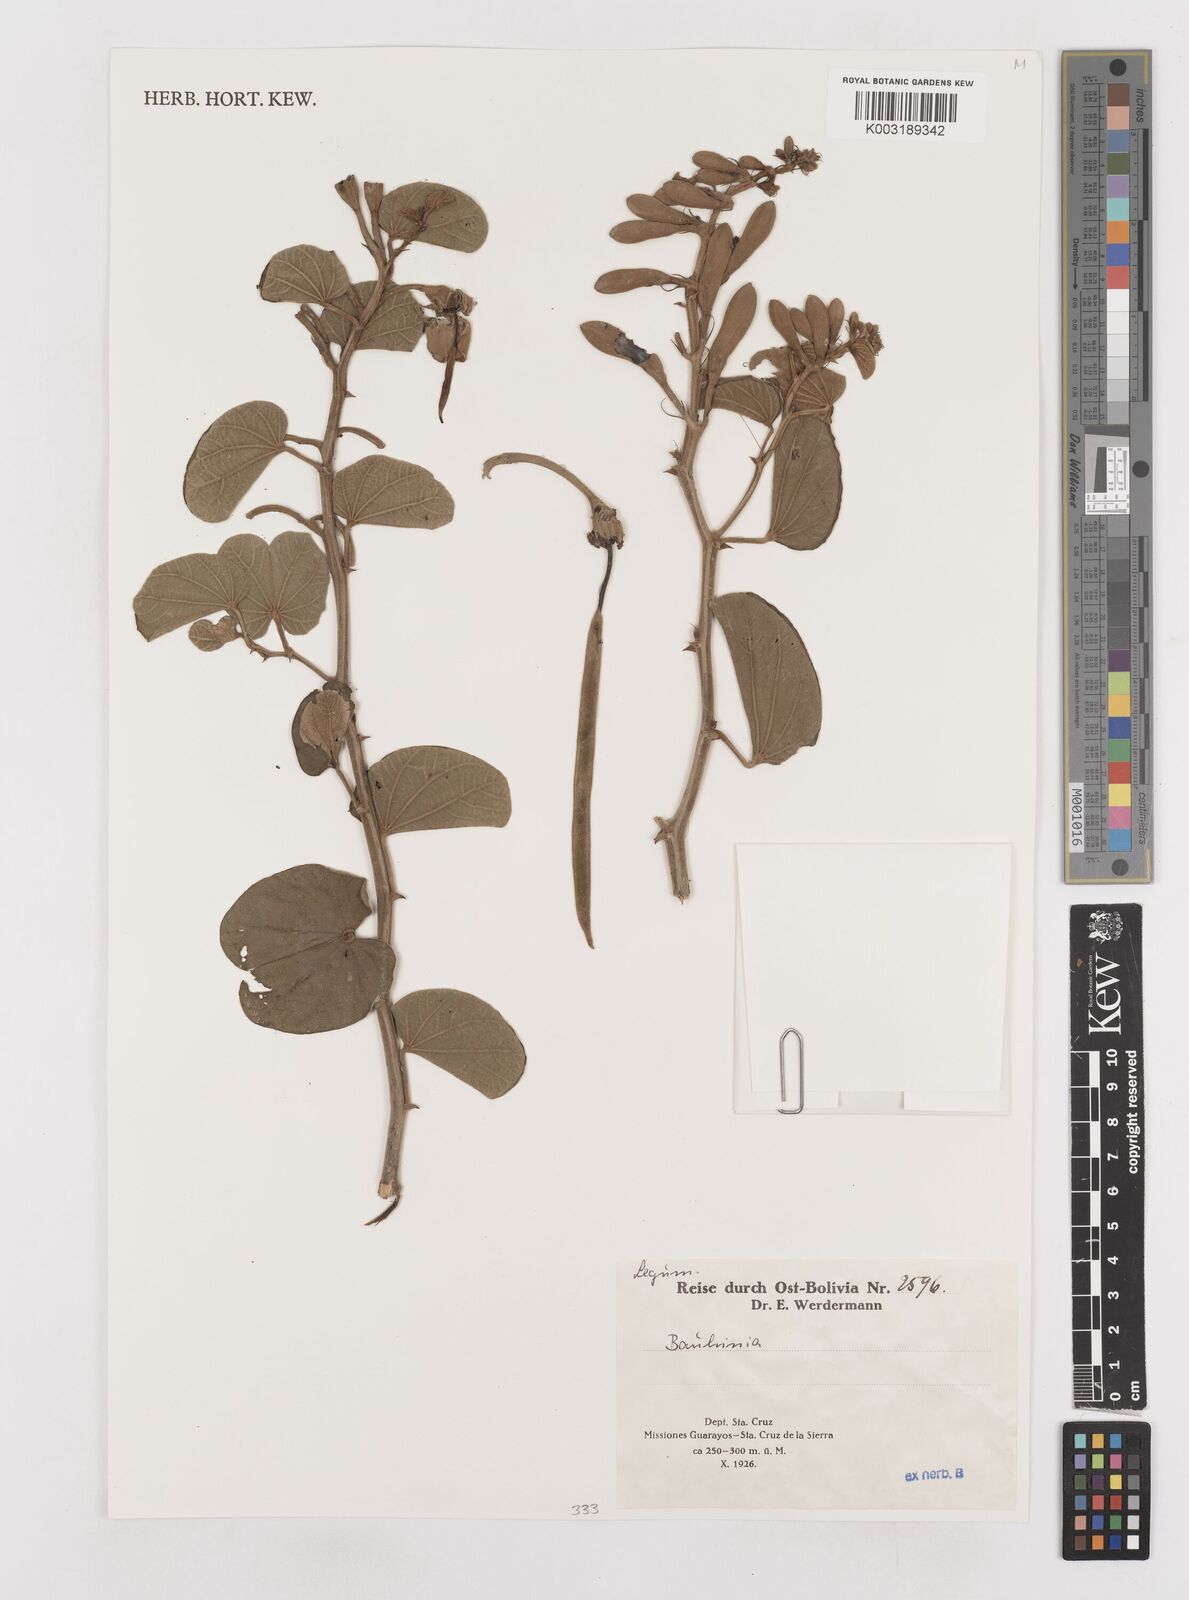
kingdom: Plantae
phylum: Tracheophyta
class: Magnoliopsida
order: Fabales
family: Fabaceae
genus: Bauhinia
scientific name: Bauhinia
